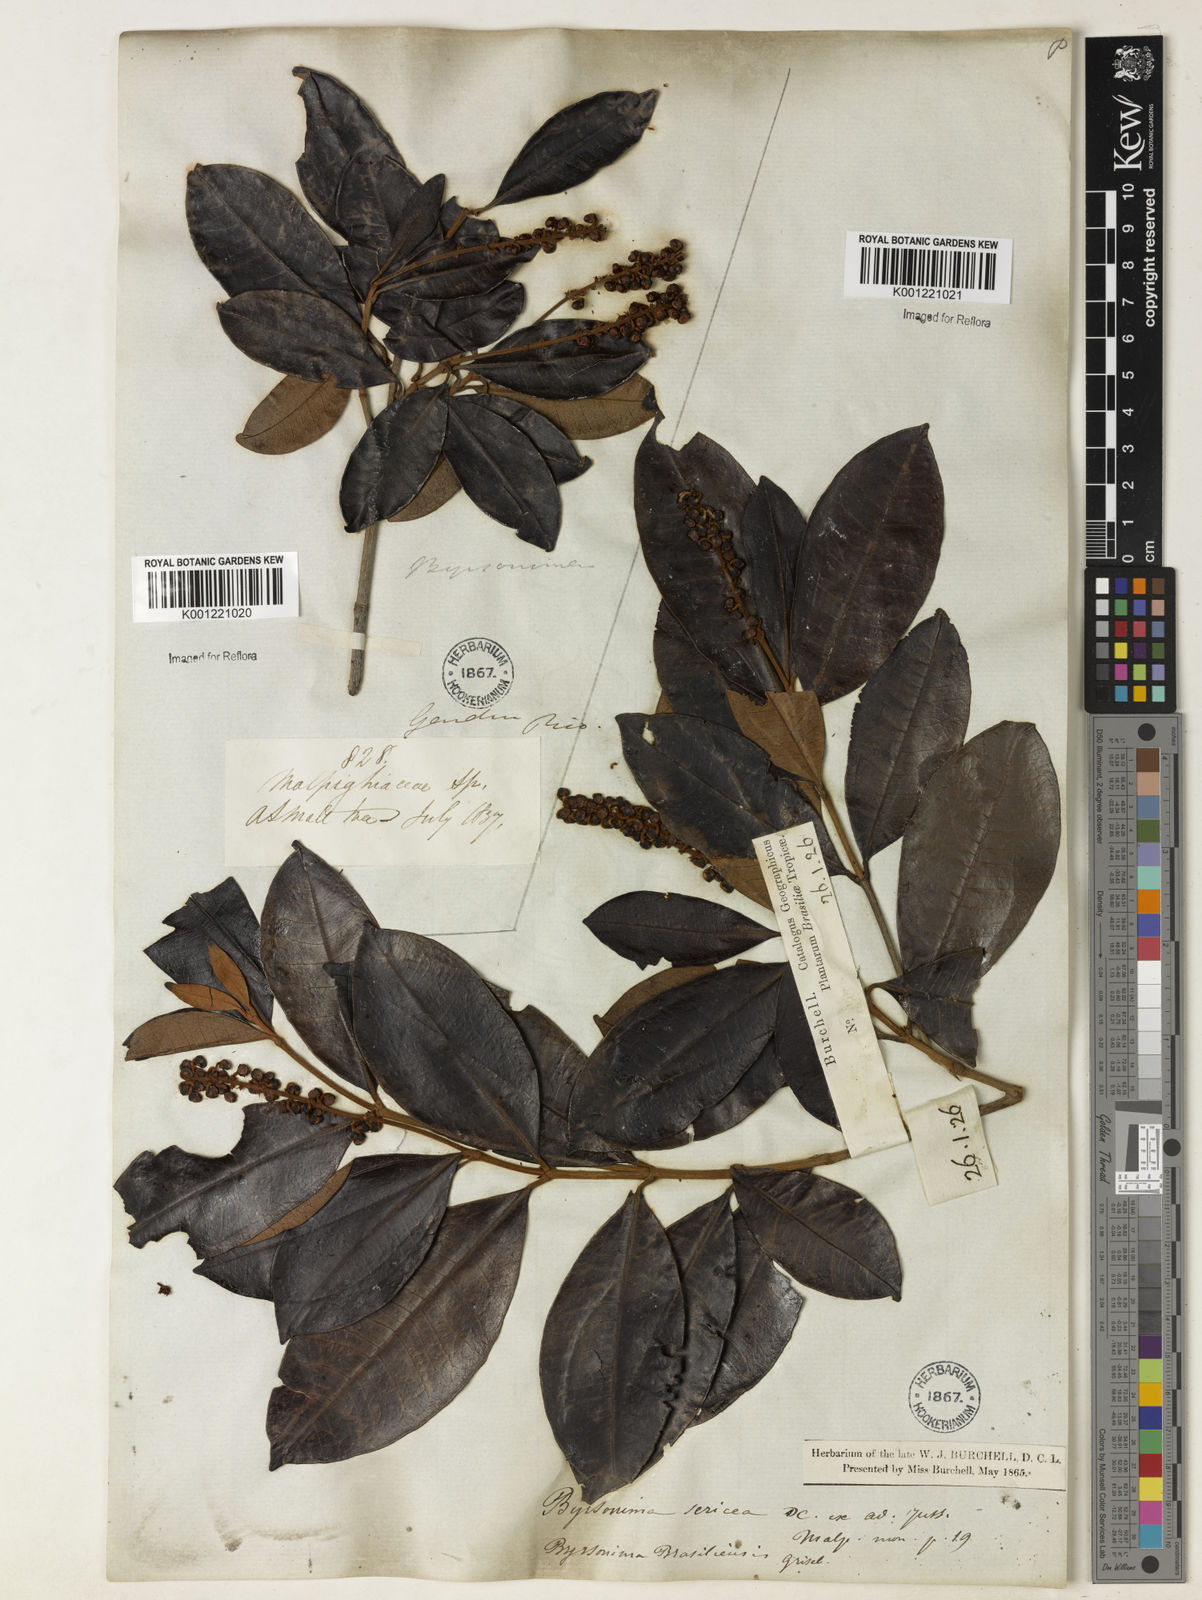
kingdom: Plantae
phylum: Tracheophyta
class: Magnoliopsida
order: Malpighiales
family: Malpighiaceae
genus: Byrsonima
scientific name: Byrsonima sericea
